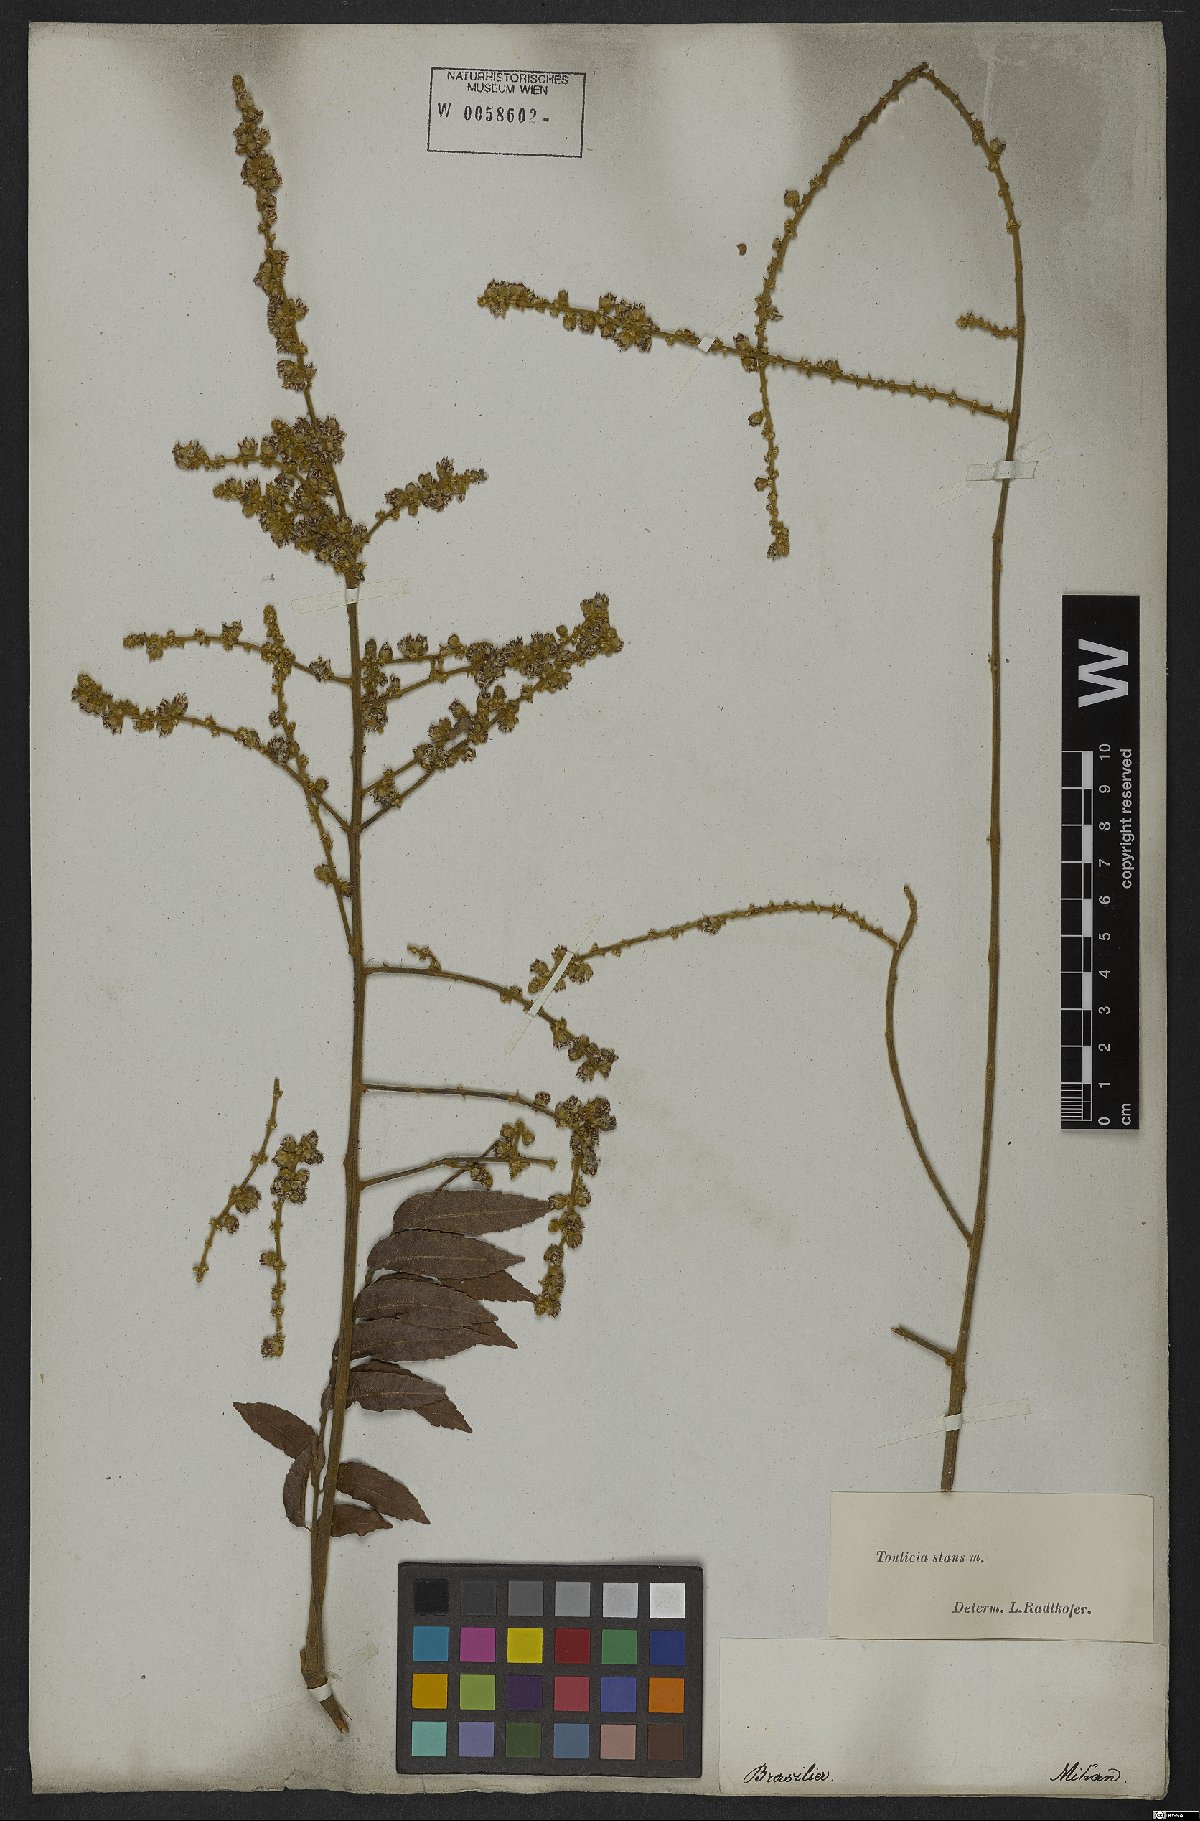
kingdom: Plantae
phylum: Tracheophyta
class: Magnoliopsida
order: Sapindales
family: Sapindaceae
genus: Toulicia
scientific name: Toulicia stans
